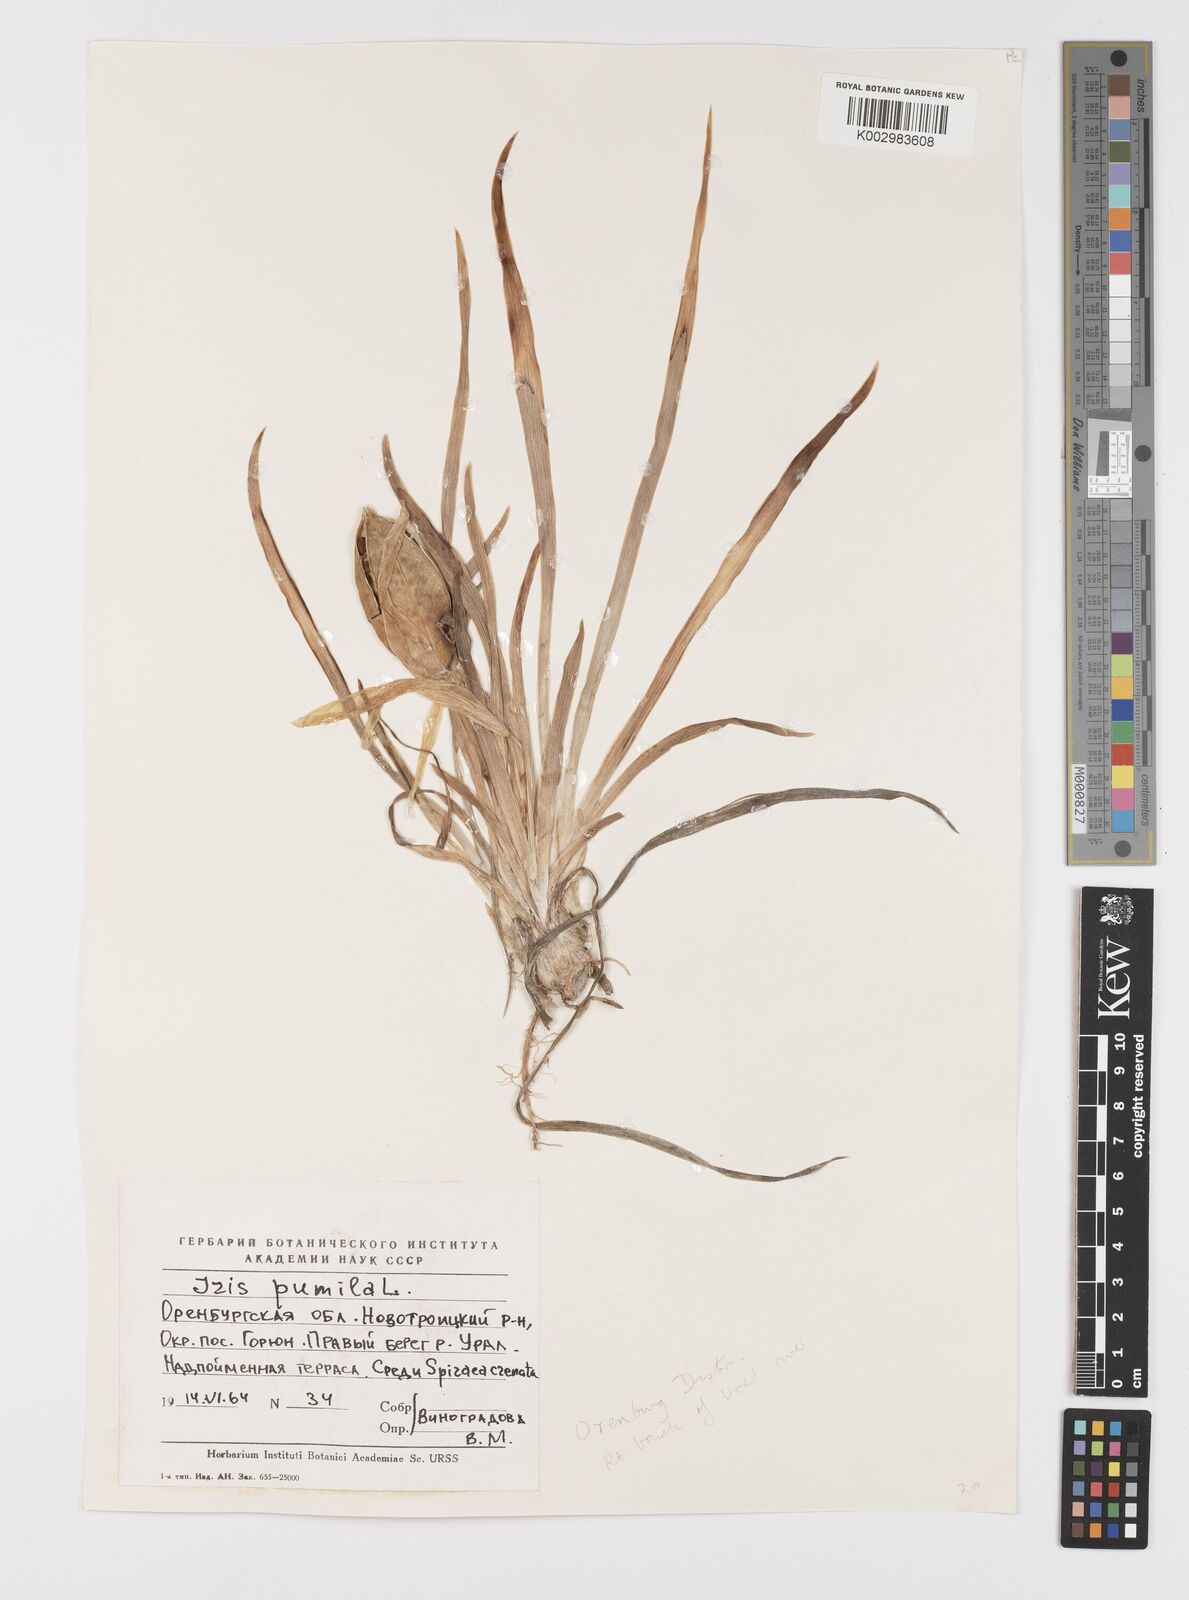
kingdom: Plantae
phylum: Tracheophyta
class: Liliopsida
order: Asparagales
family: Iridaceae
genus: Iris
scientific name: Iris pumila
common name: Dwarf iris
